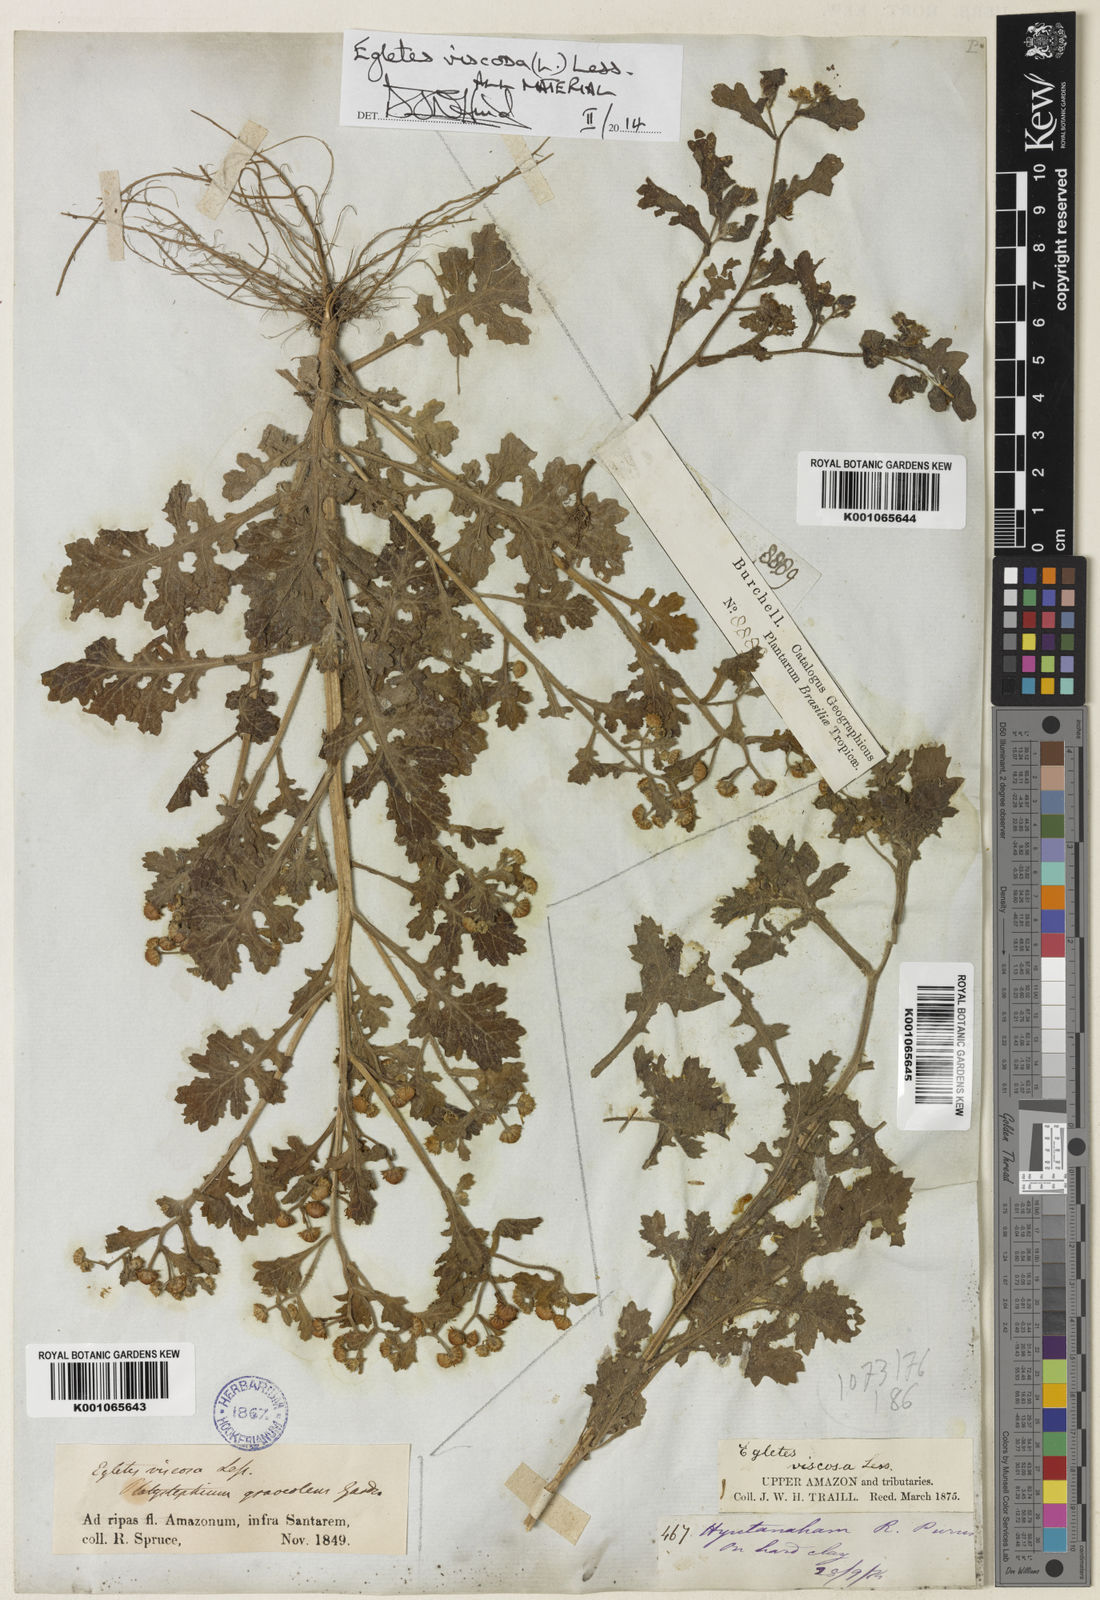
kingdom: Plantae
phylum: Tracheophyta
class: Magnoliopsida
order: Asterales
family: Asteraceae
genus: Egletes
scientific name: Egletes viscosa
